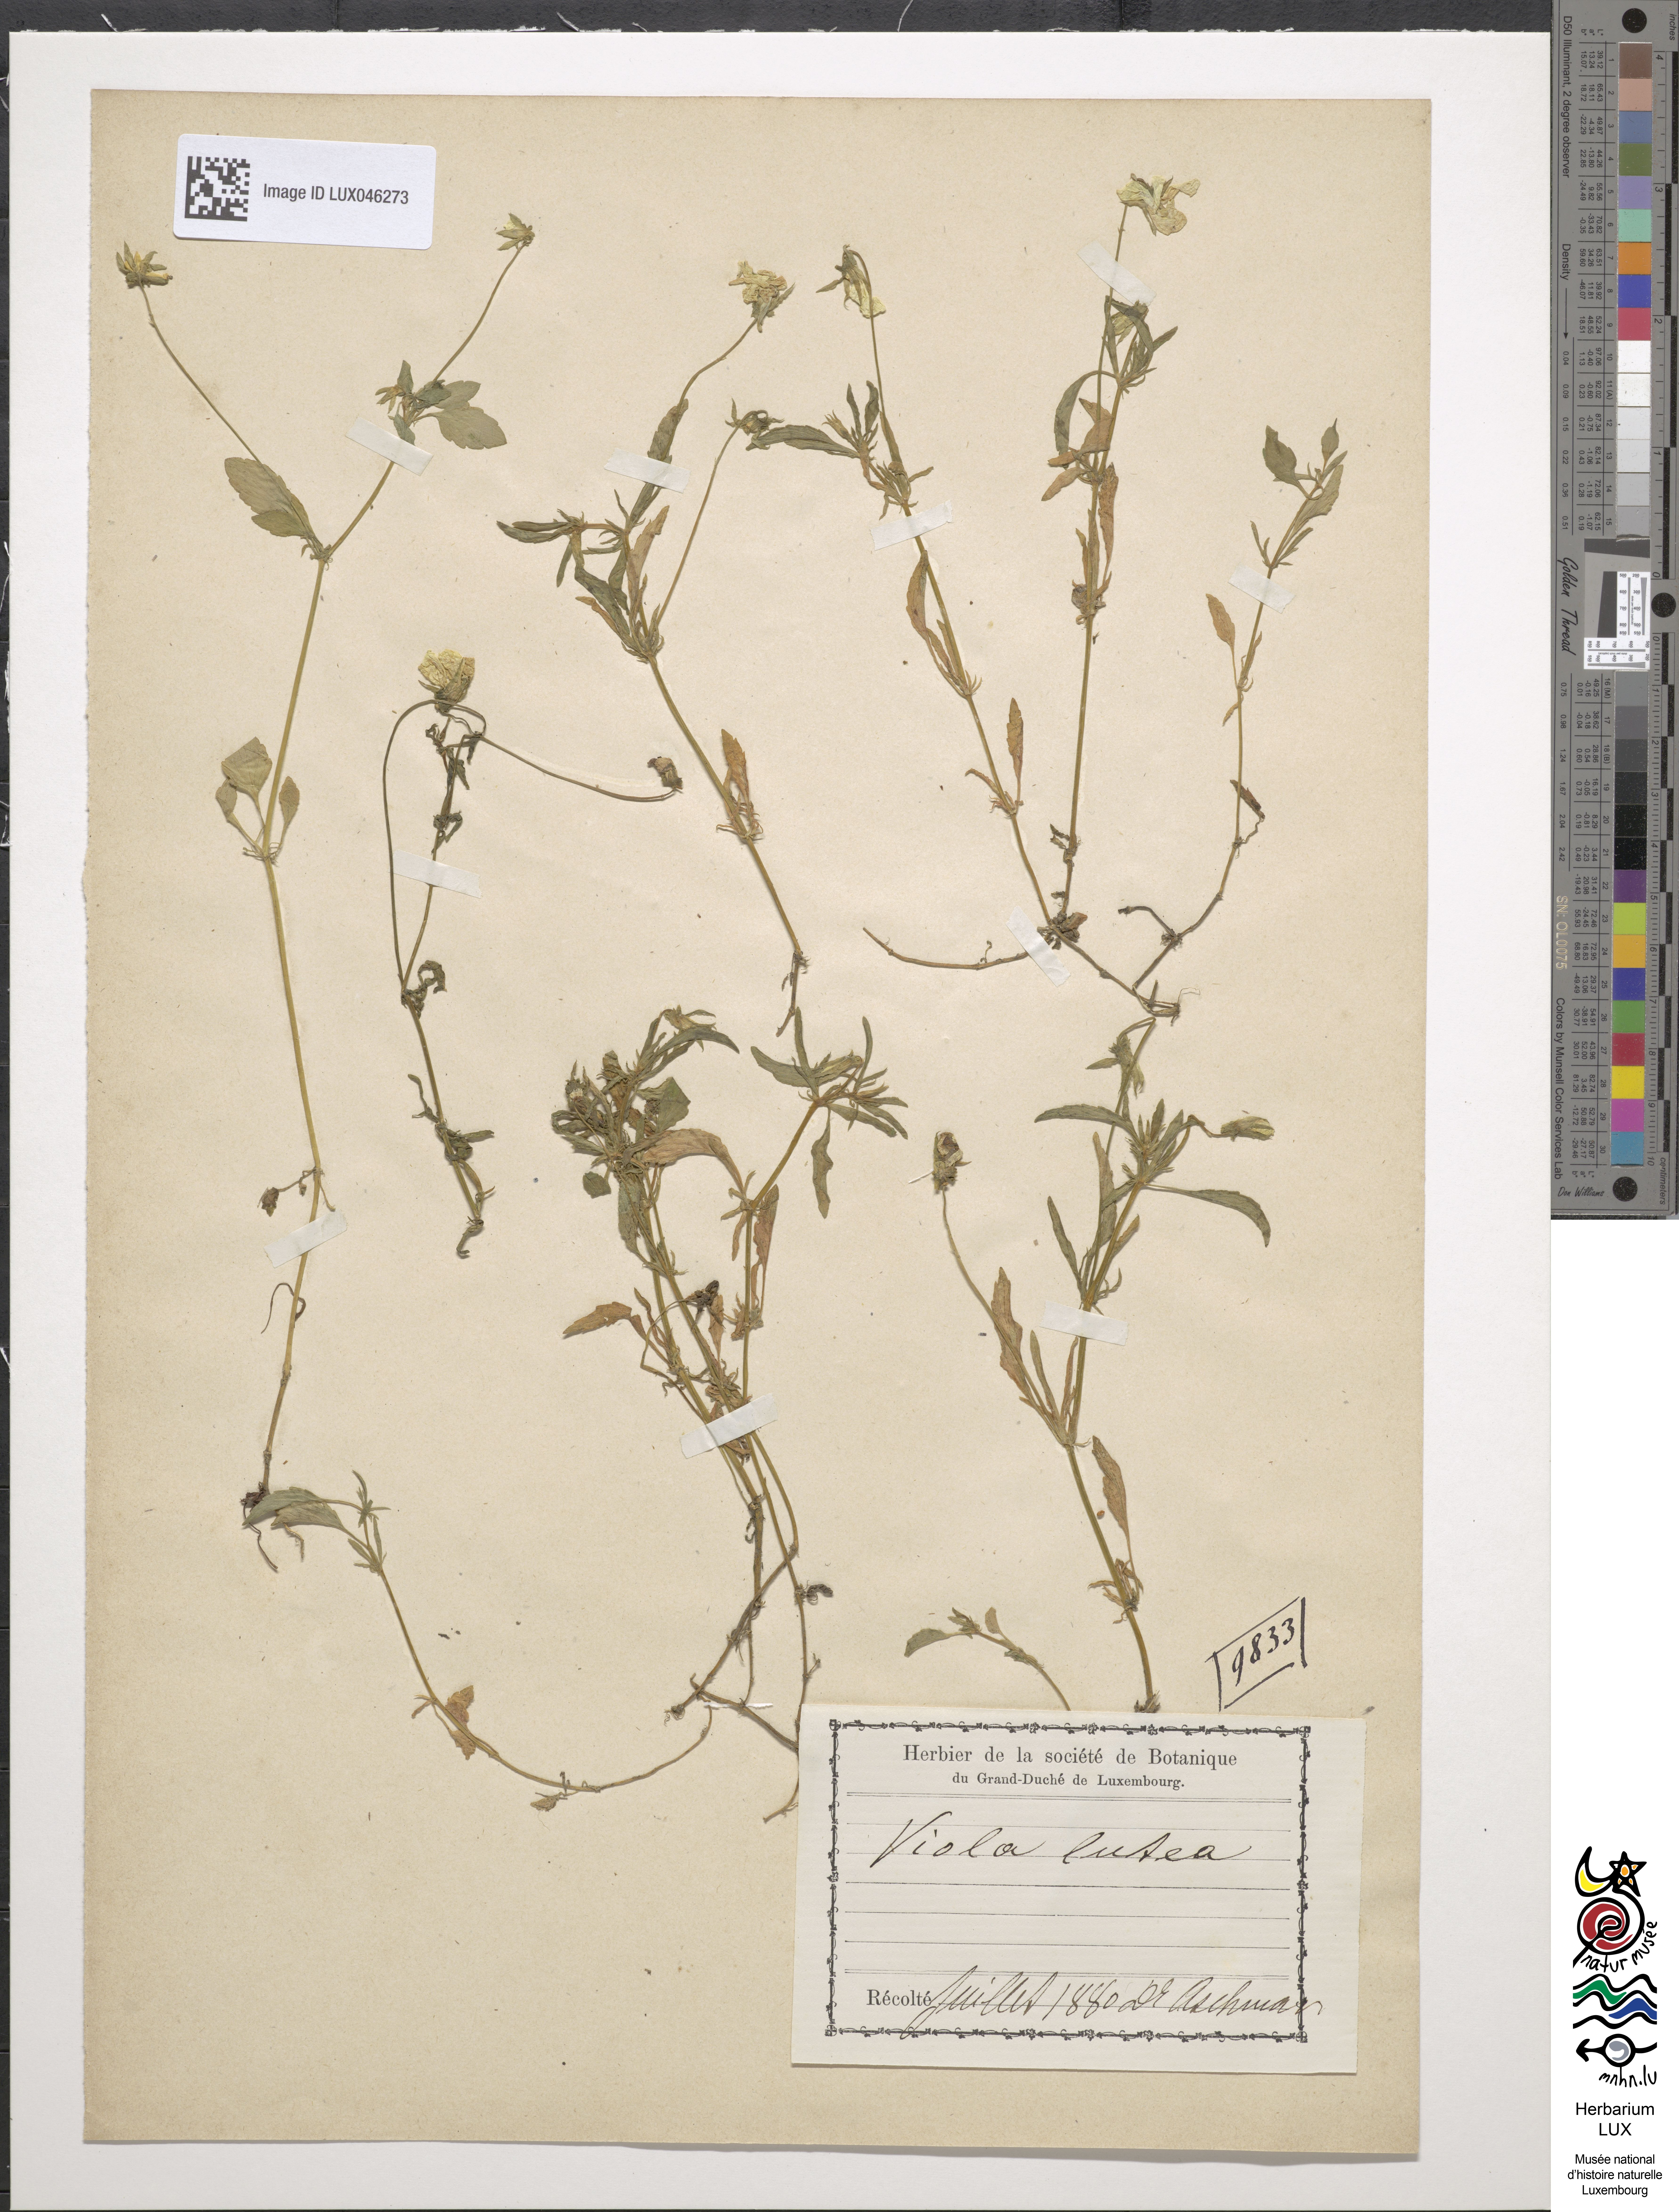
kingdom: Plantae
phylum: Tracheophyta
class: Magnoliopsida
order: Malpighiales
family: Violaceae
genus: Viola
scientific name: Viola lutea
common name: Mountain pansy
